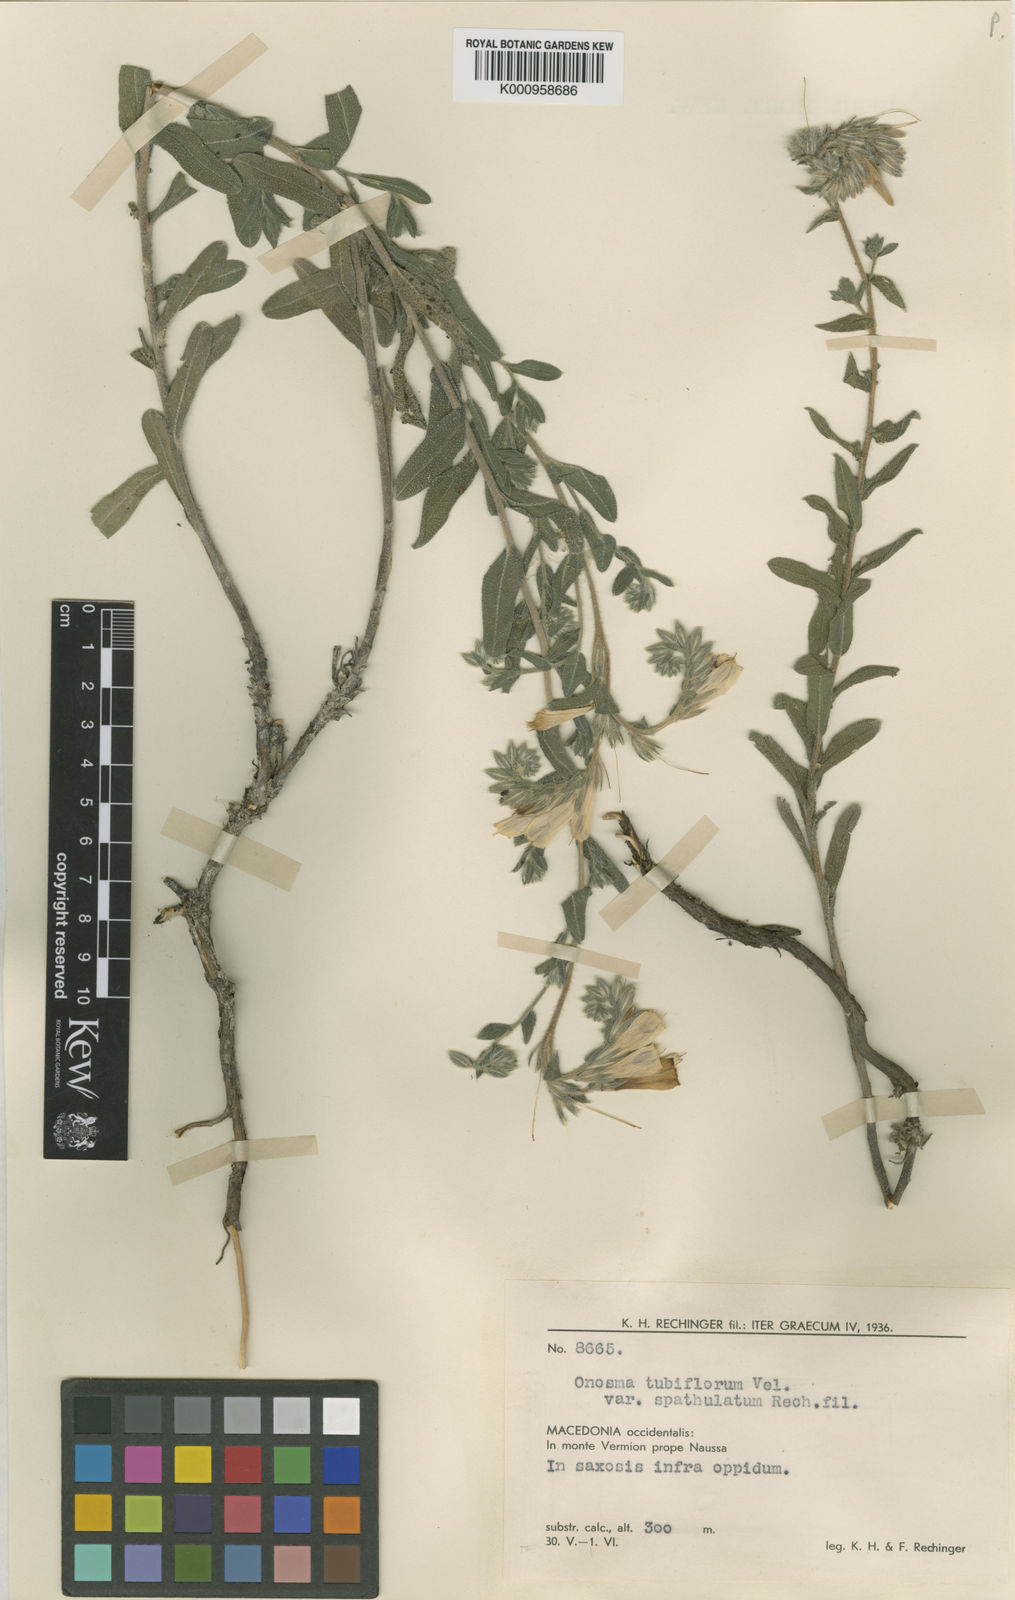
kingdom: Plantae
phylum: Tracheophyta
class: Magnoliopsida
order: Boraginales
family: Boraginaceae
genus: Onosma
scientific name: Onosma heterophylla
